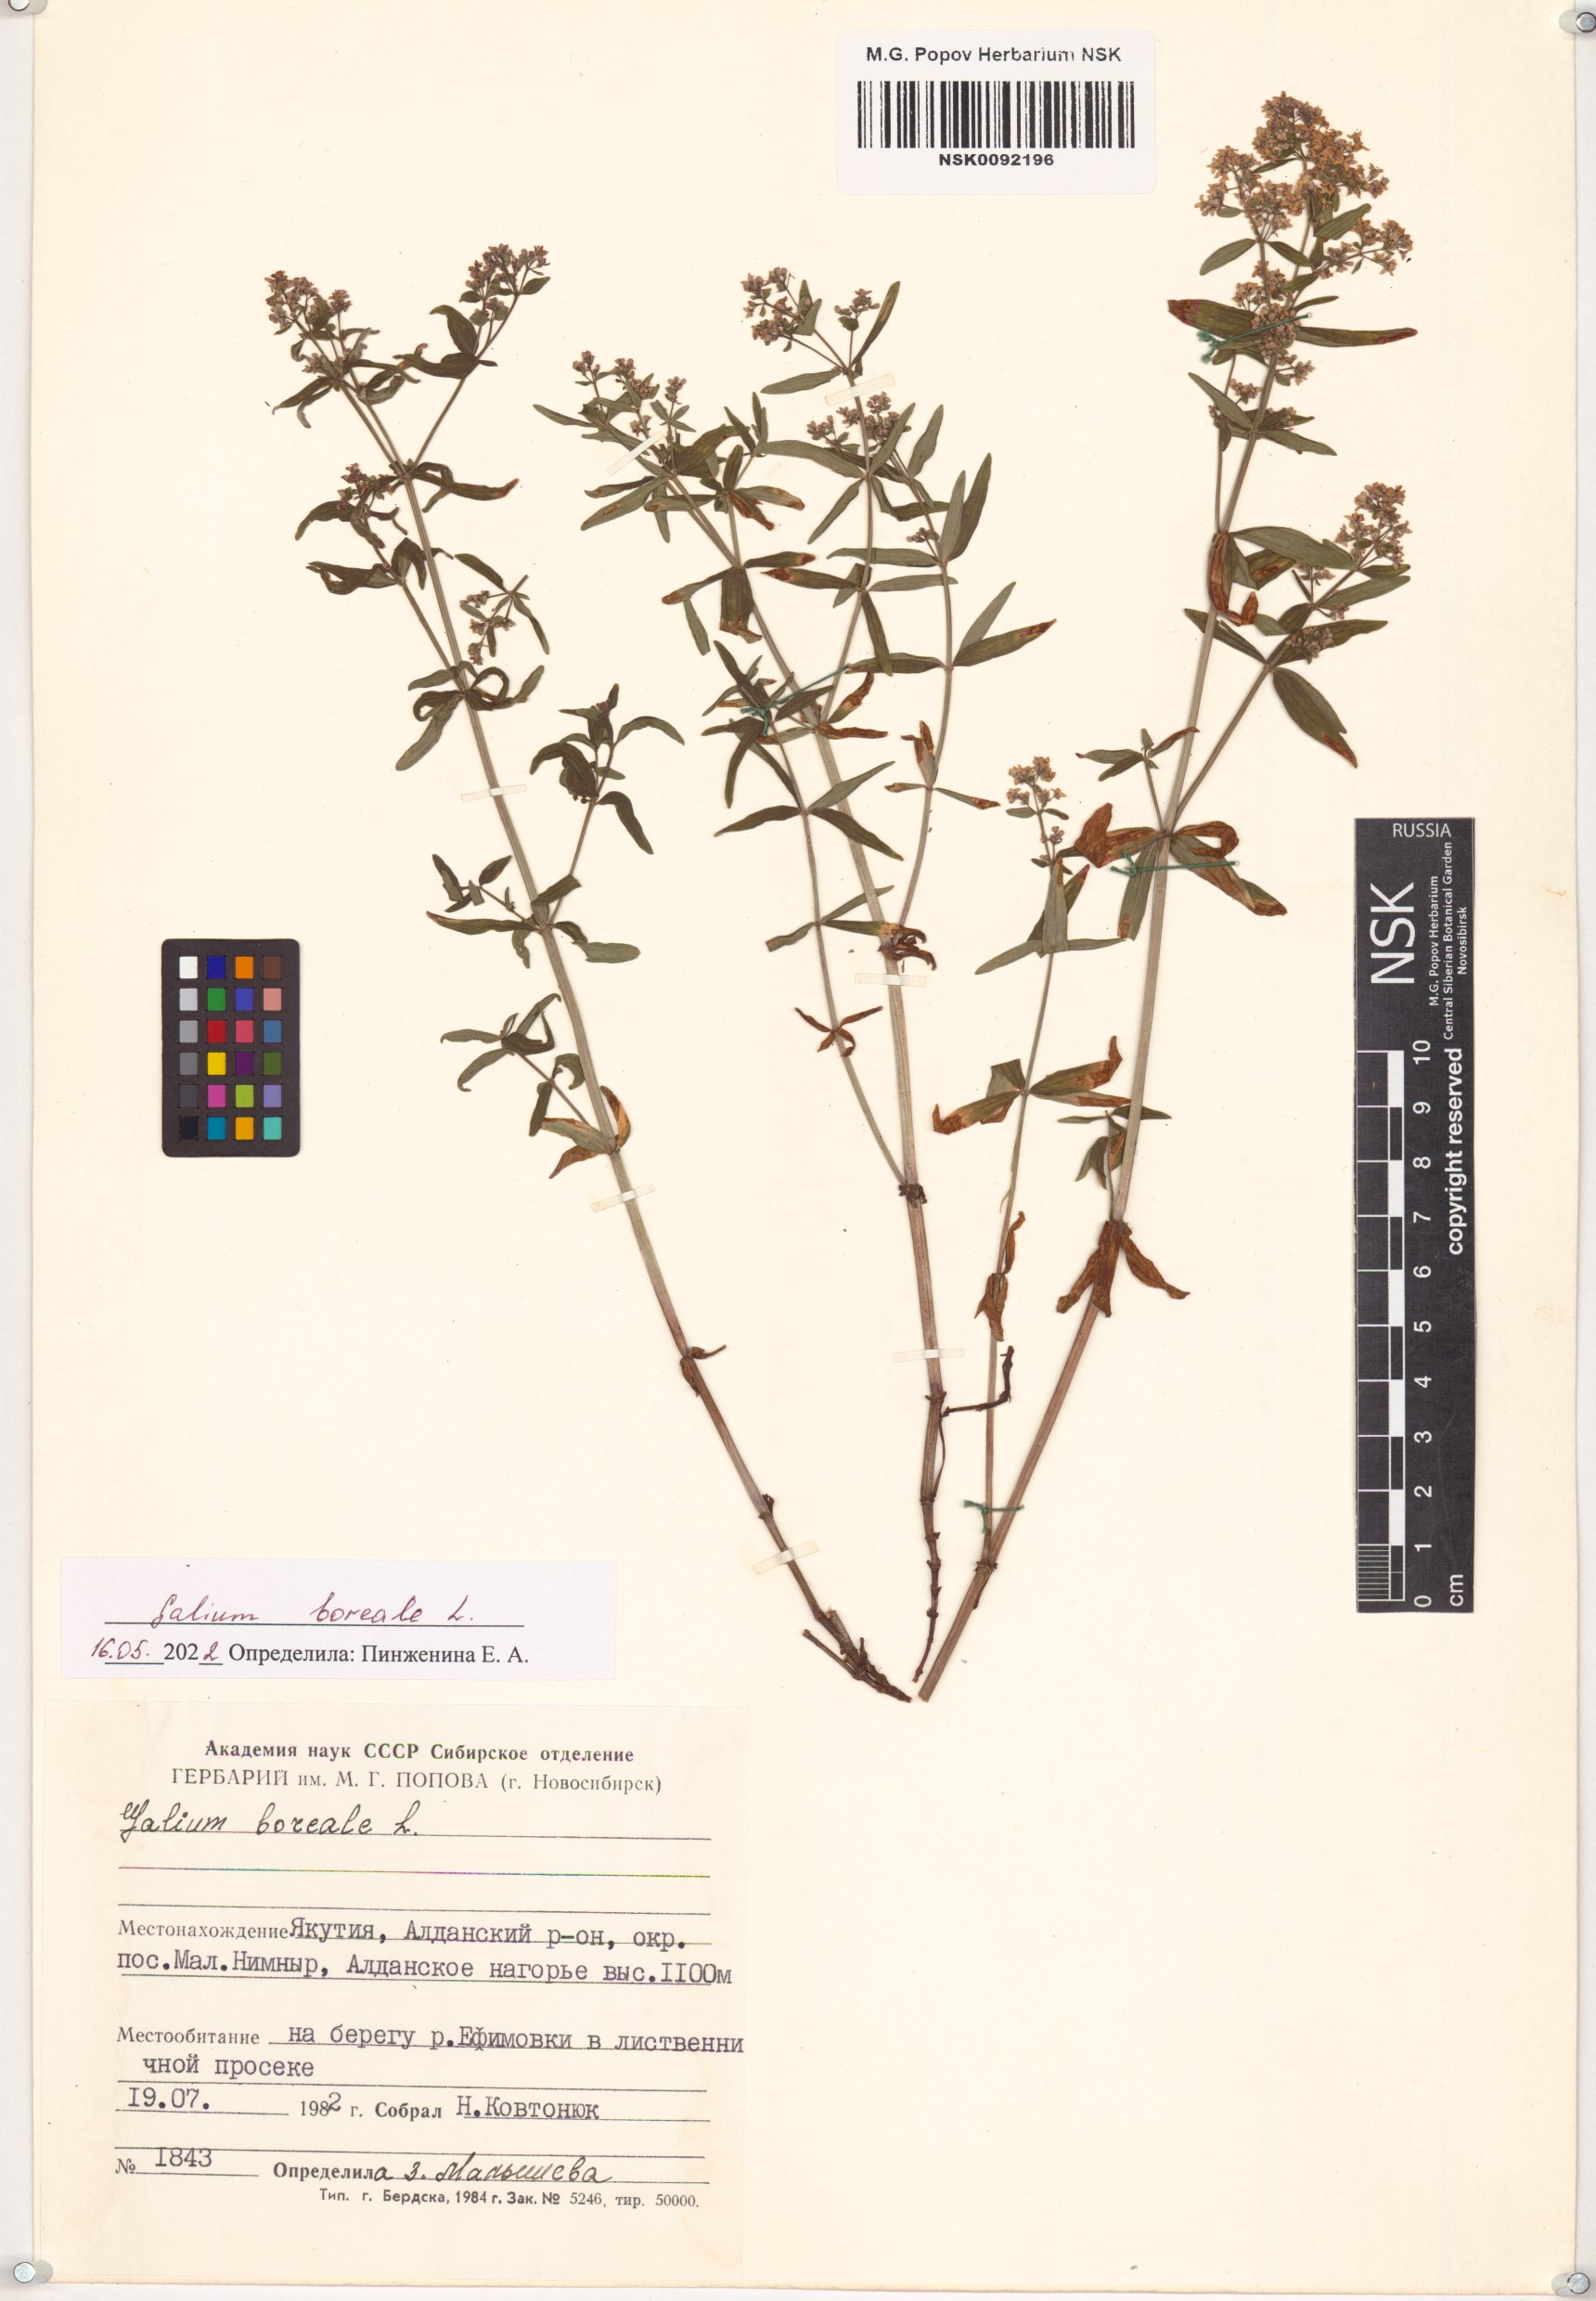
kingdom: Plantae
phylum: Tracheophyta
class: Magnoliopsida
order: Gentianales
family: Rubiaceae
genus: Galium
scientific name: Galium boreale
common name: Northern bedstraw
